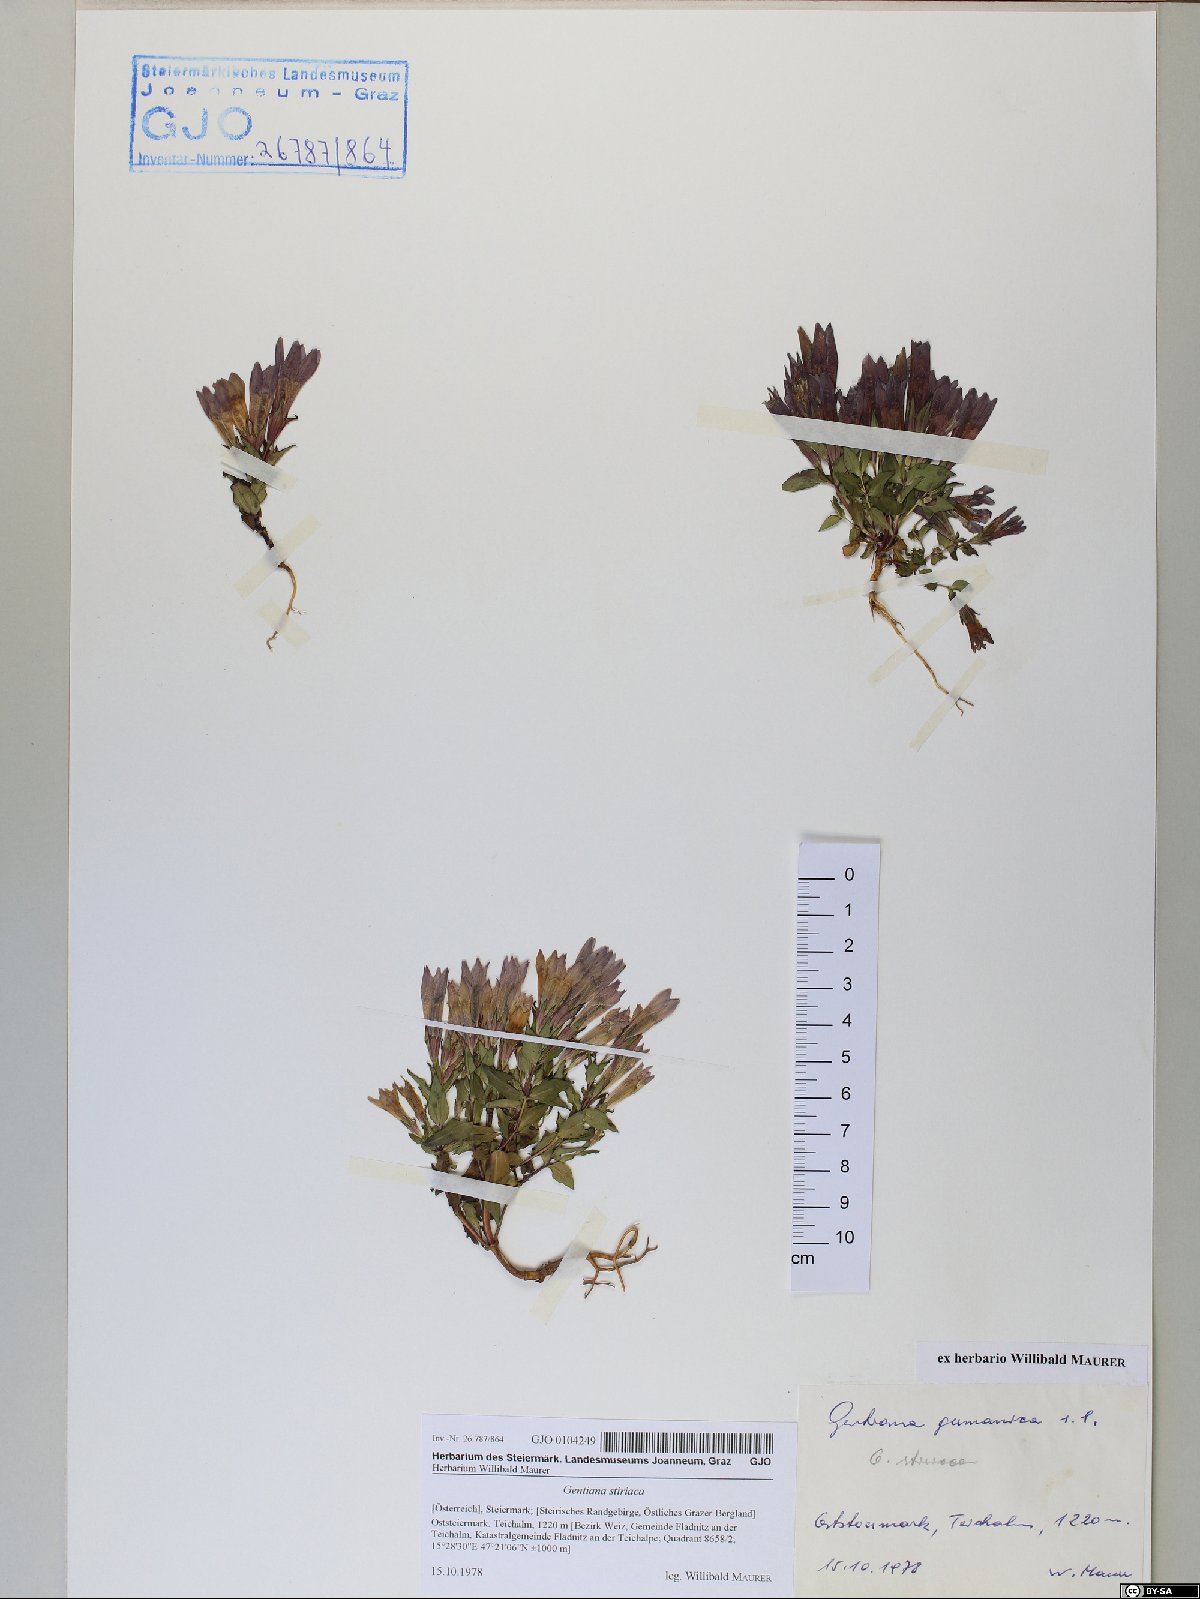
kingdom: Plantae
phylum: Tracheophyta
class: Magnoliopsida
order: Gentianales
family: Gentianaceae
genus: Gentianella
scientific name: Gentianella rhaetica
